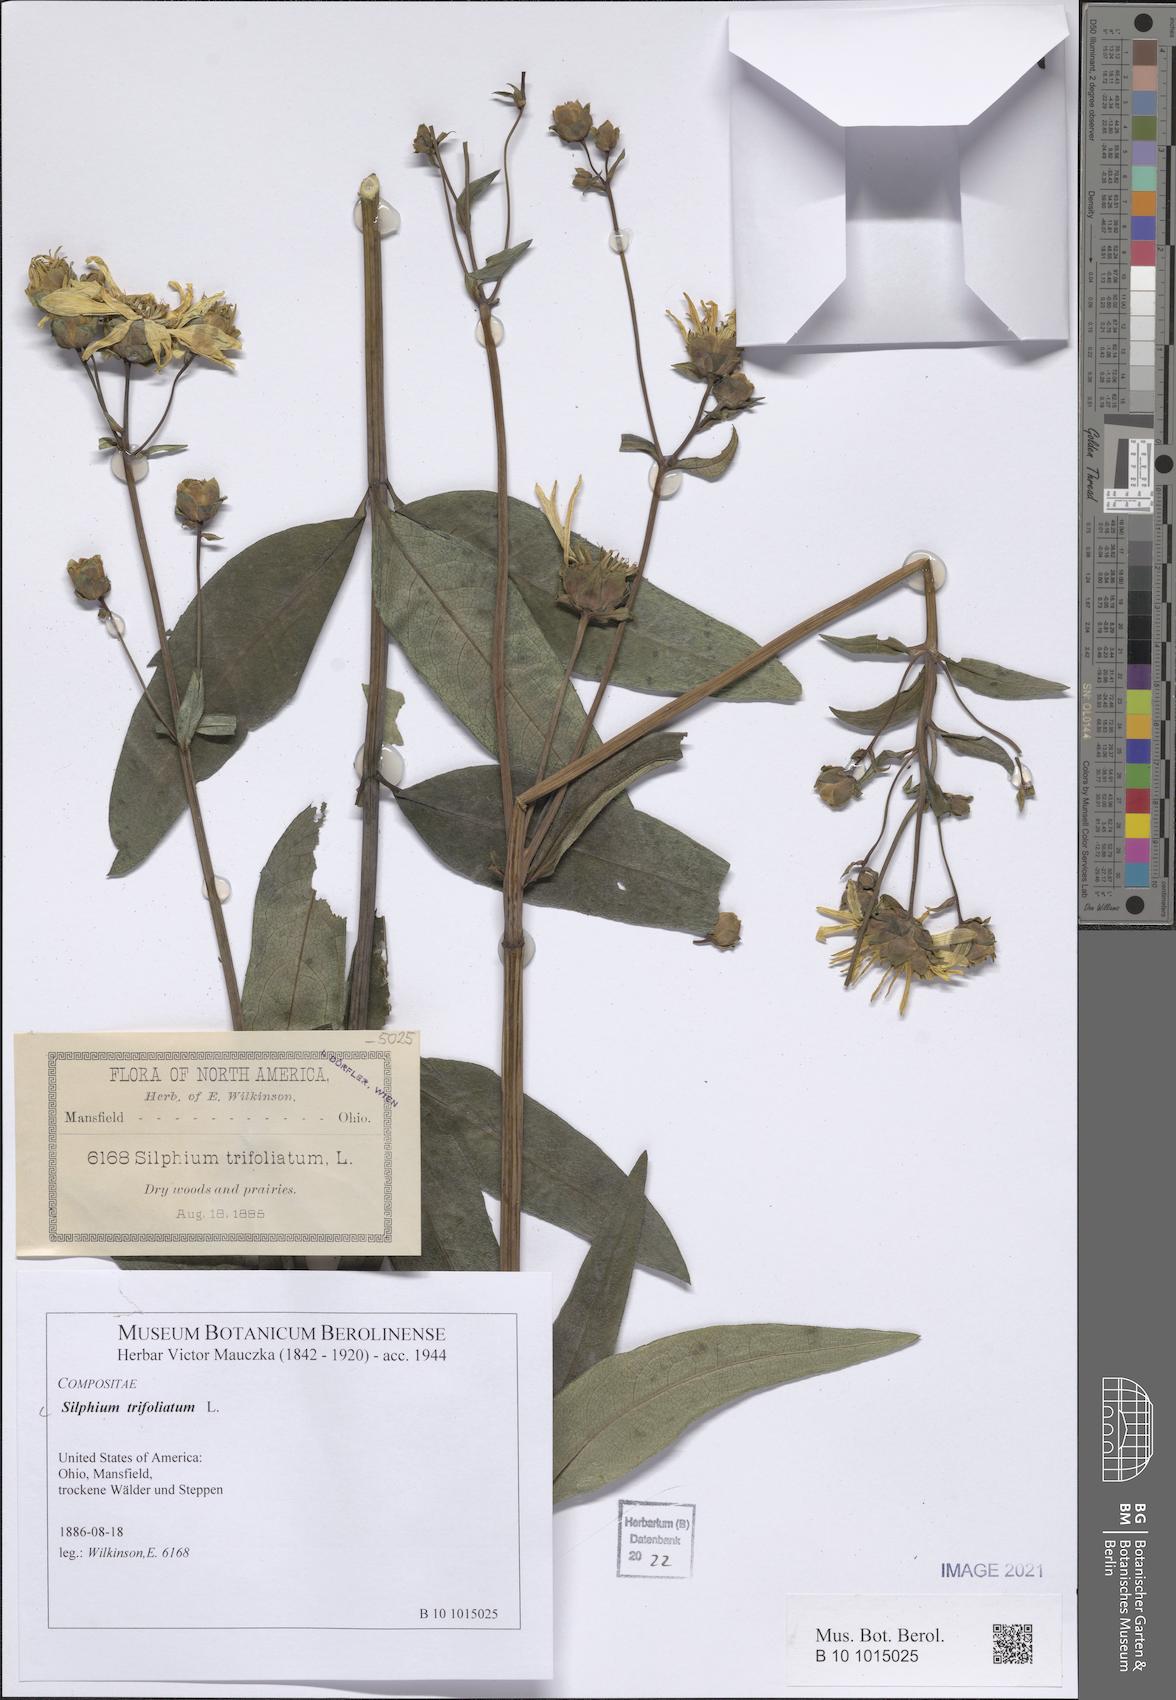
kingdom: Plantae
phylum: Tracheophyta
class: Magnoliopsida
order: Asterales
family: Asteraceae
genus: Silphium
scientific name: Silphium asteriscus
